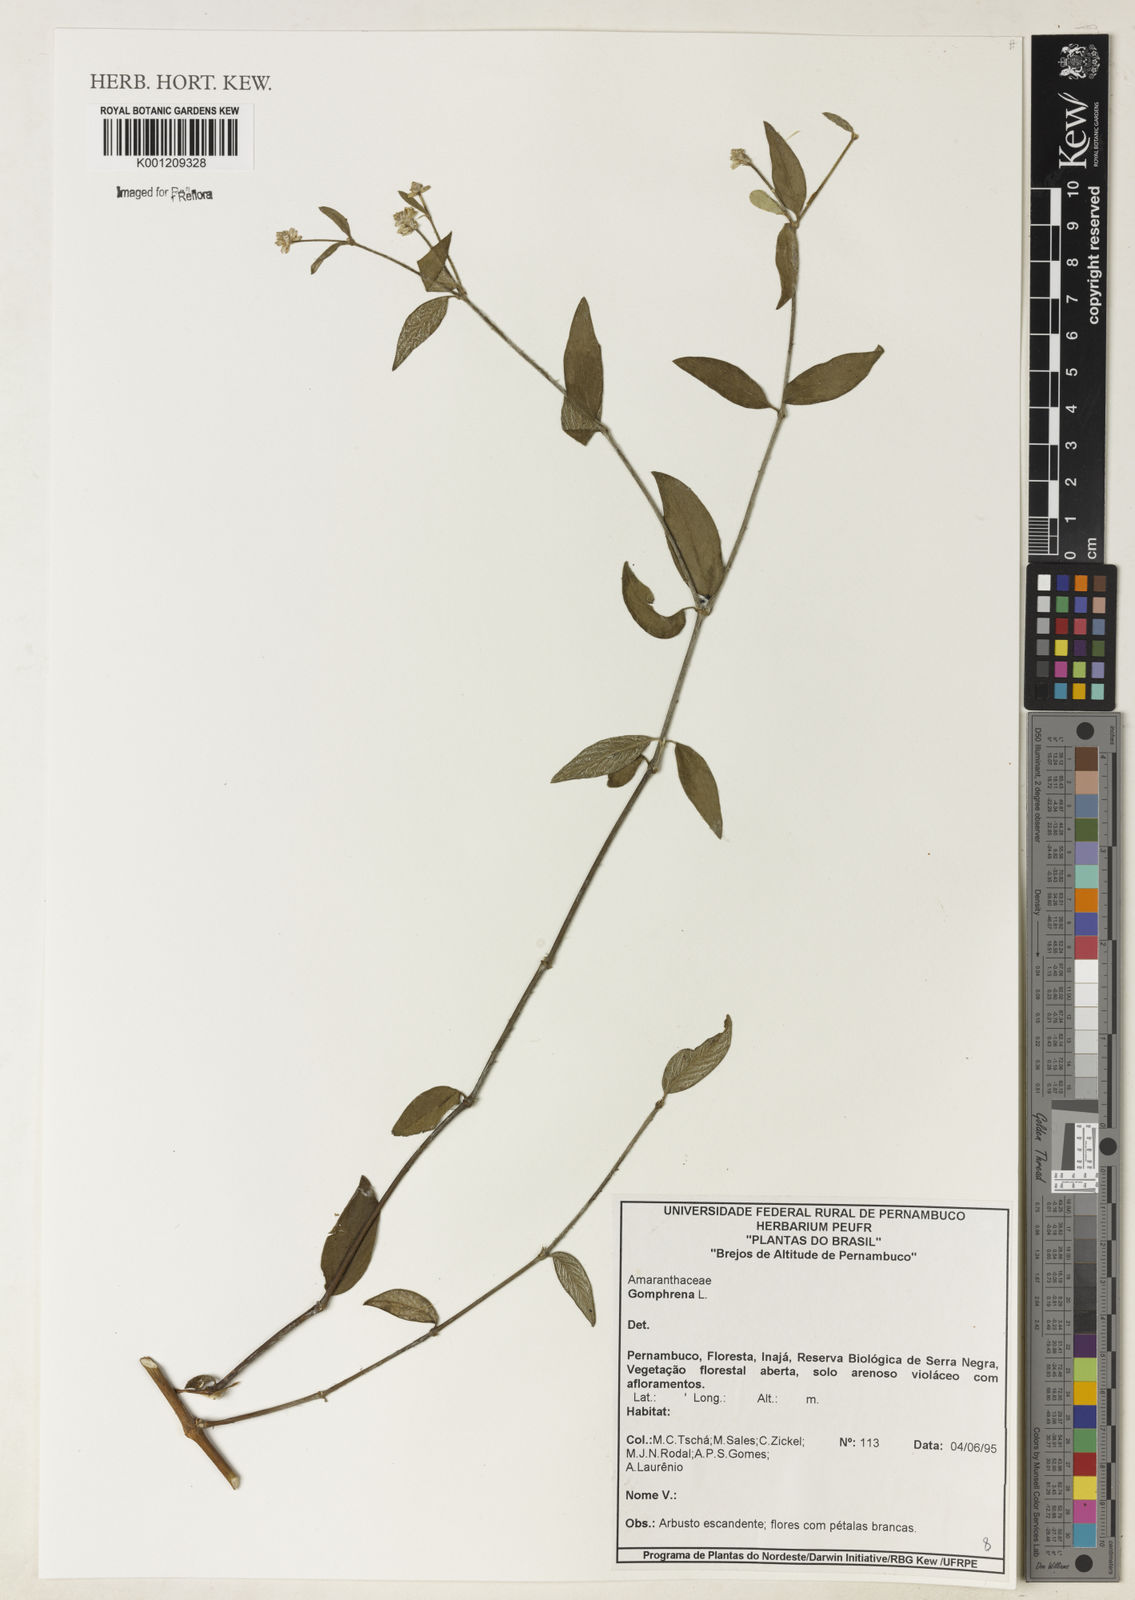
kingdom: Plantae
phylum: Tracheophyta
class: Magnoliopsida
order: Caryophyllales
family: Amaranthaceae
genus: Gomphrena
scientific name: Gomphrena
